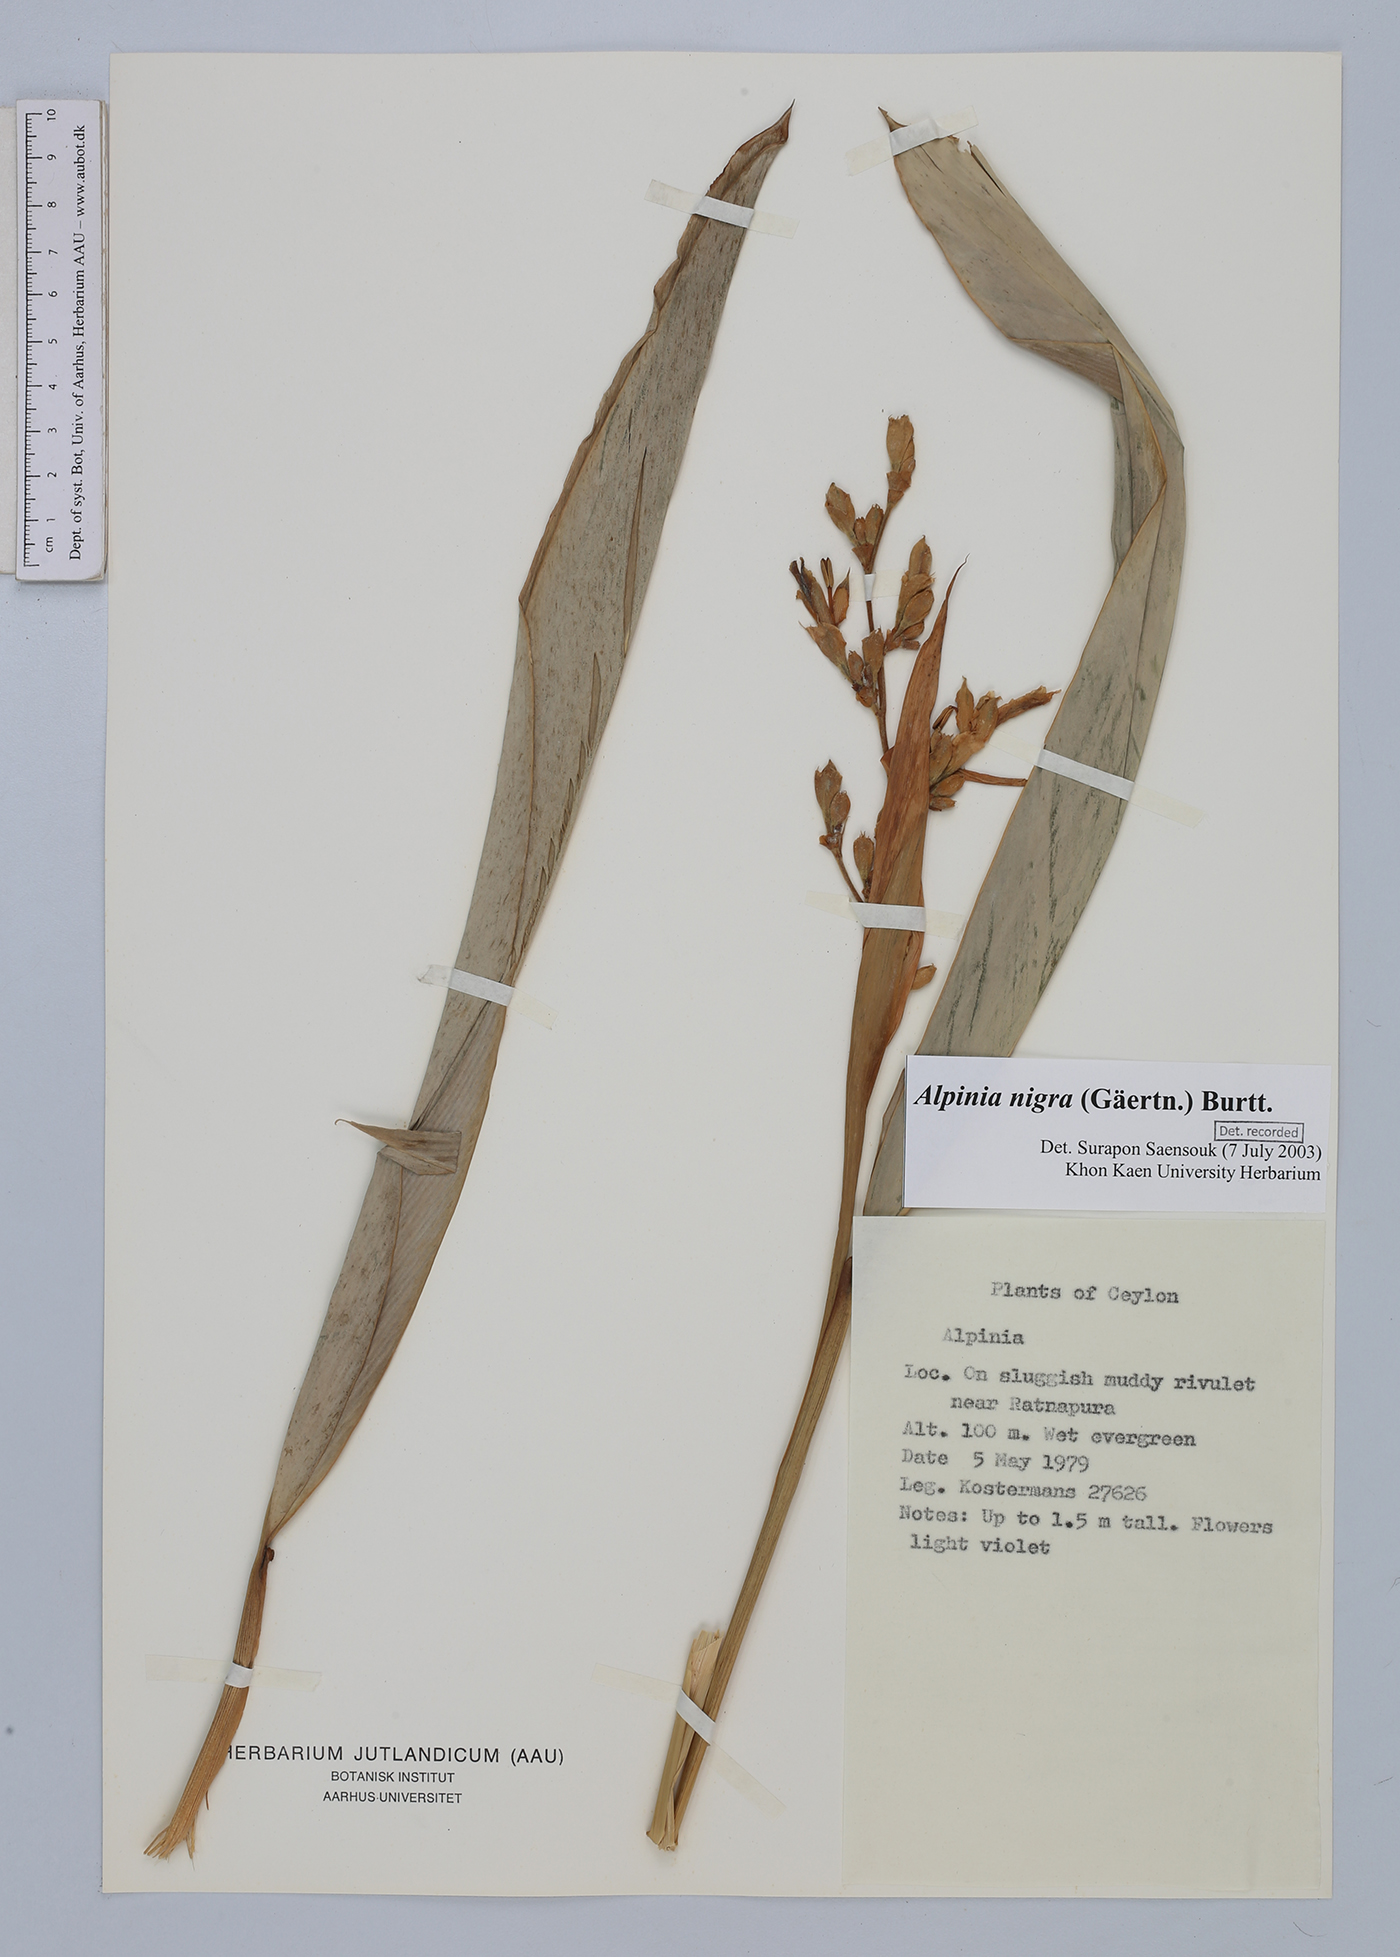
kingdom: Plantae
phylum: Tracheophyta
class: Liliopsida
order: Zingiberales
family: Zingiberaceae
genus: Alpinia
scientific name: Alpinia nigra
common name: Black fruited galanga
